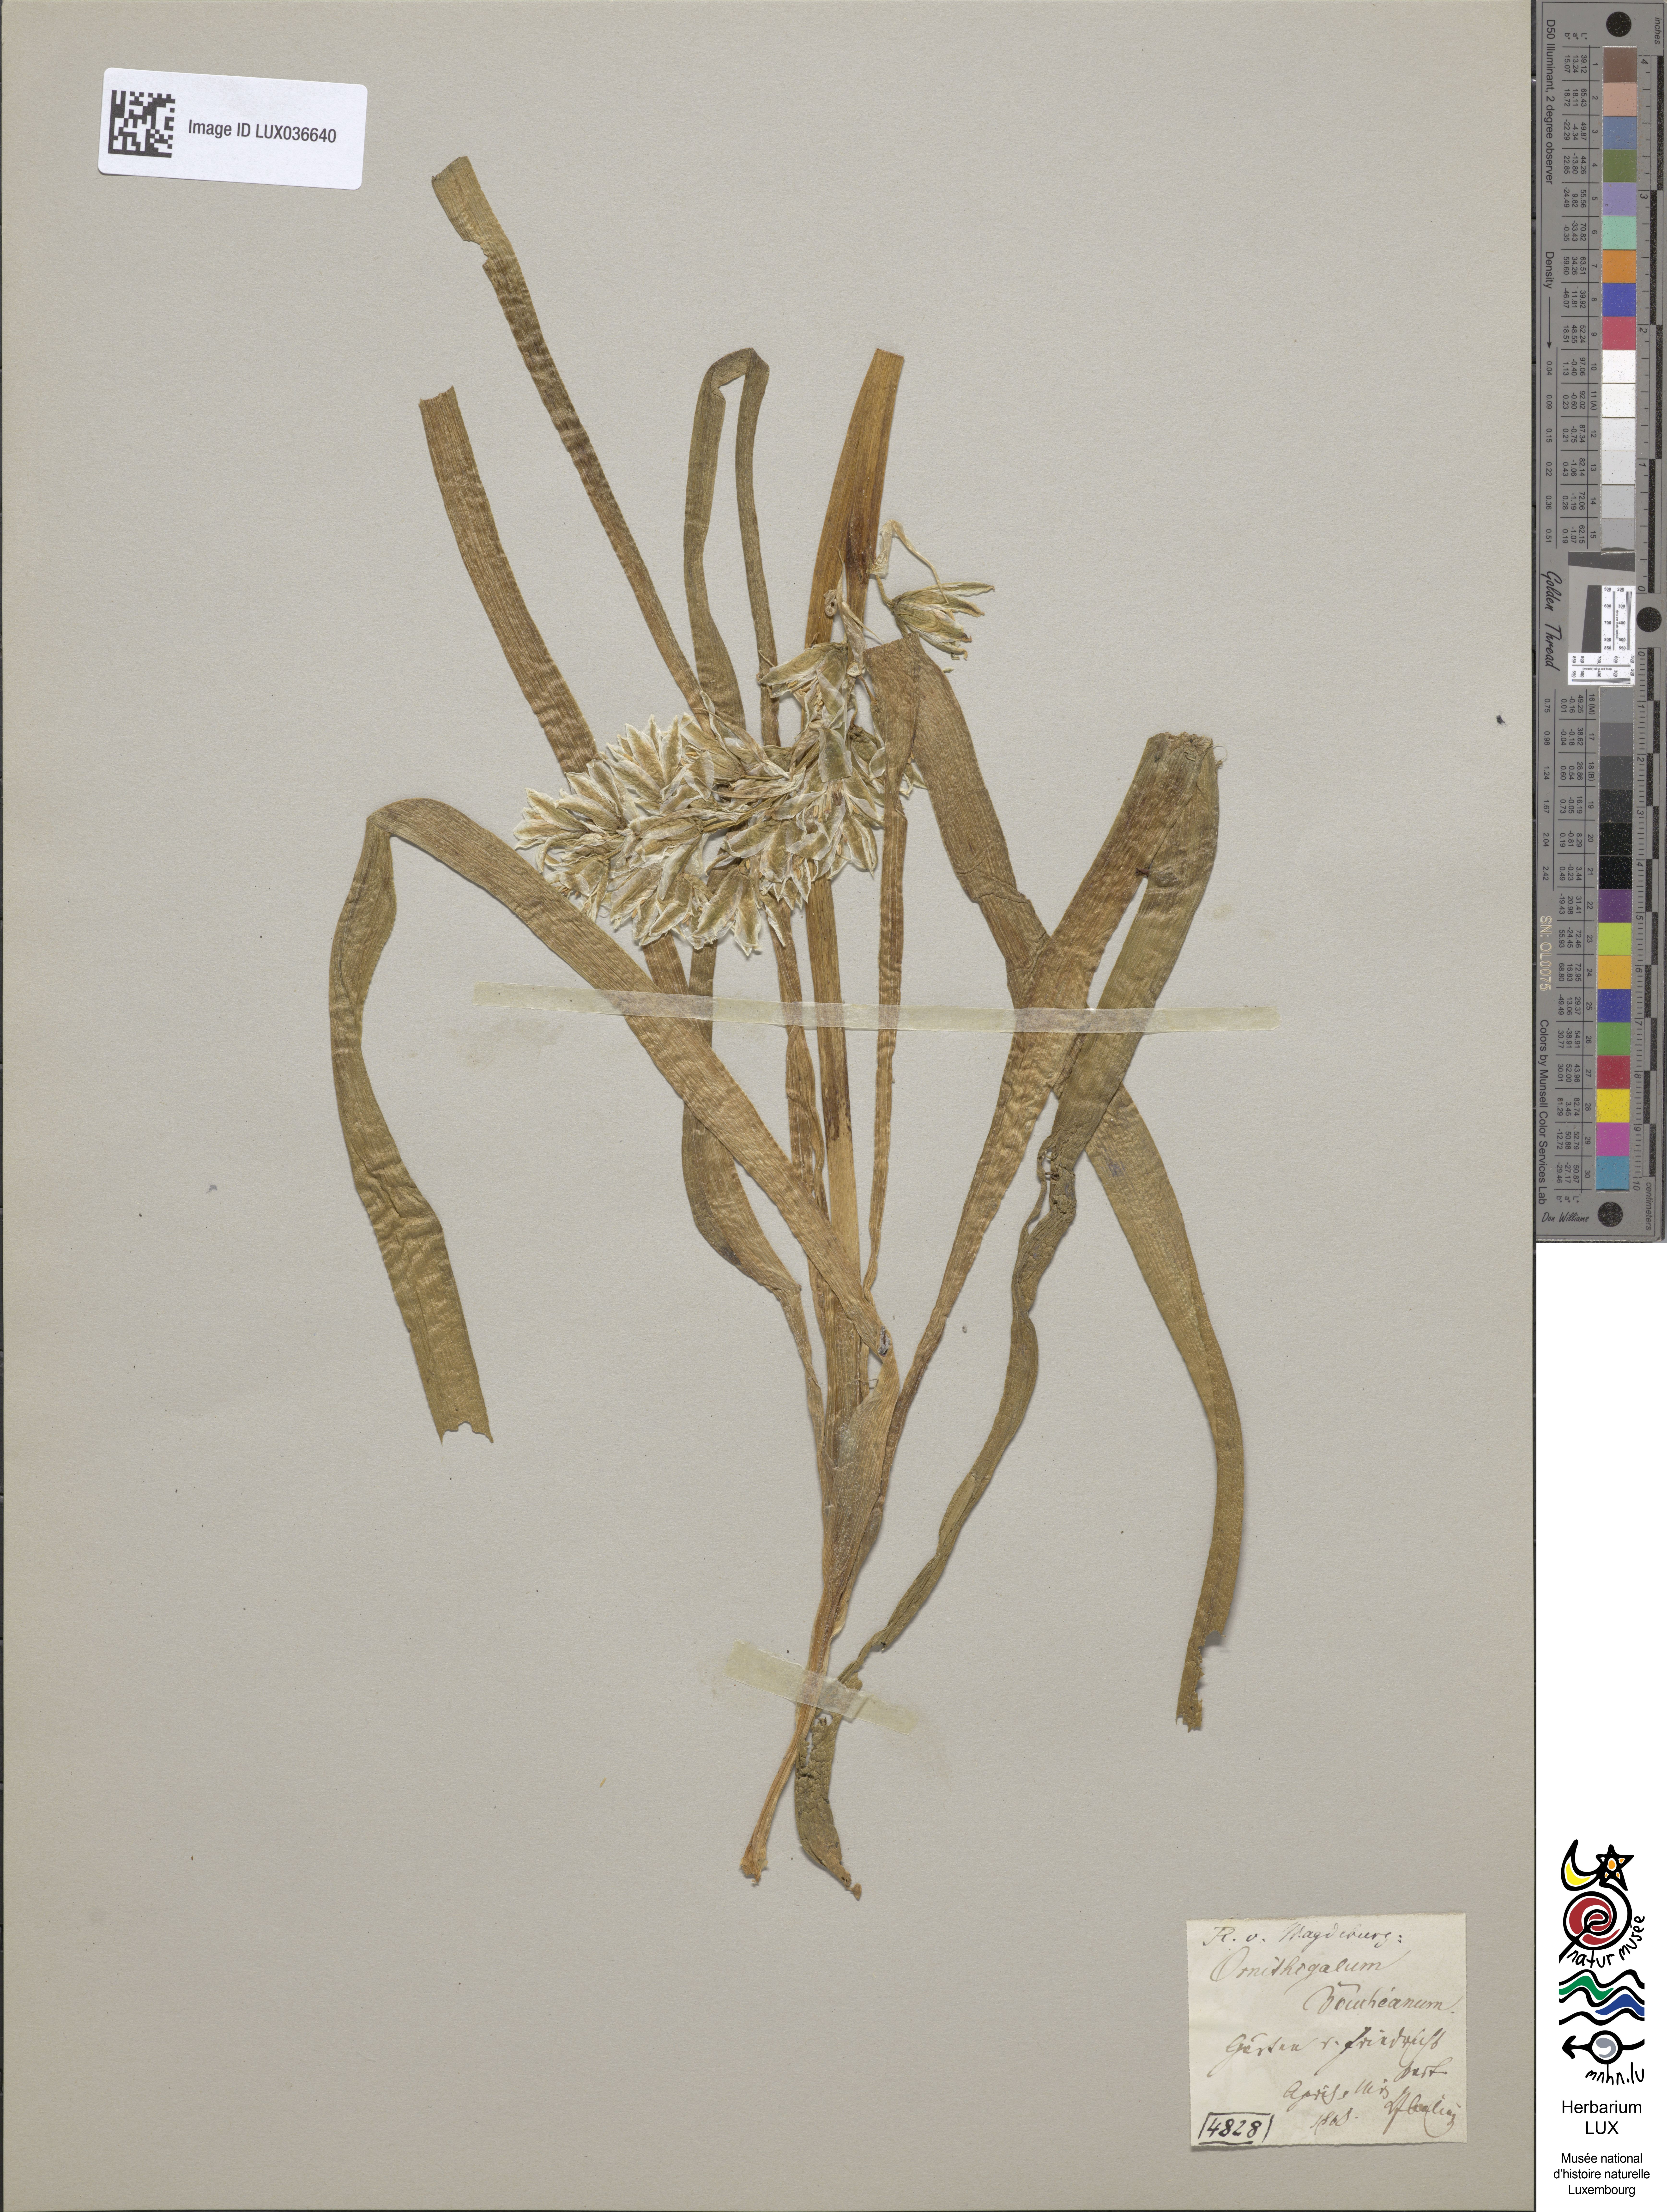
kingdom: Plantae
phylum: Tracheophyta
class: Liliopsida
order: Asparagales
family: Asparagaceae
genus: Ornithogalum
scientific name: Ornithogalum boucheanum
